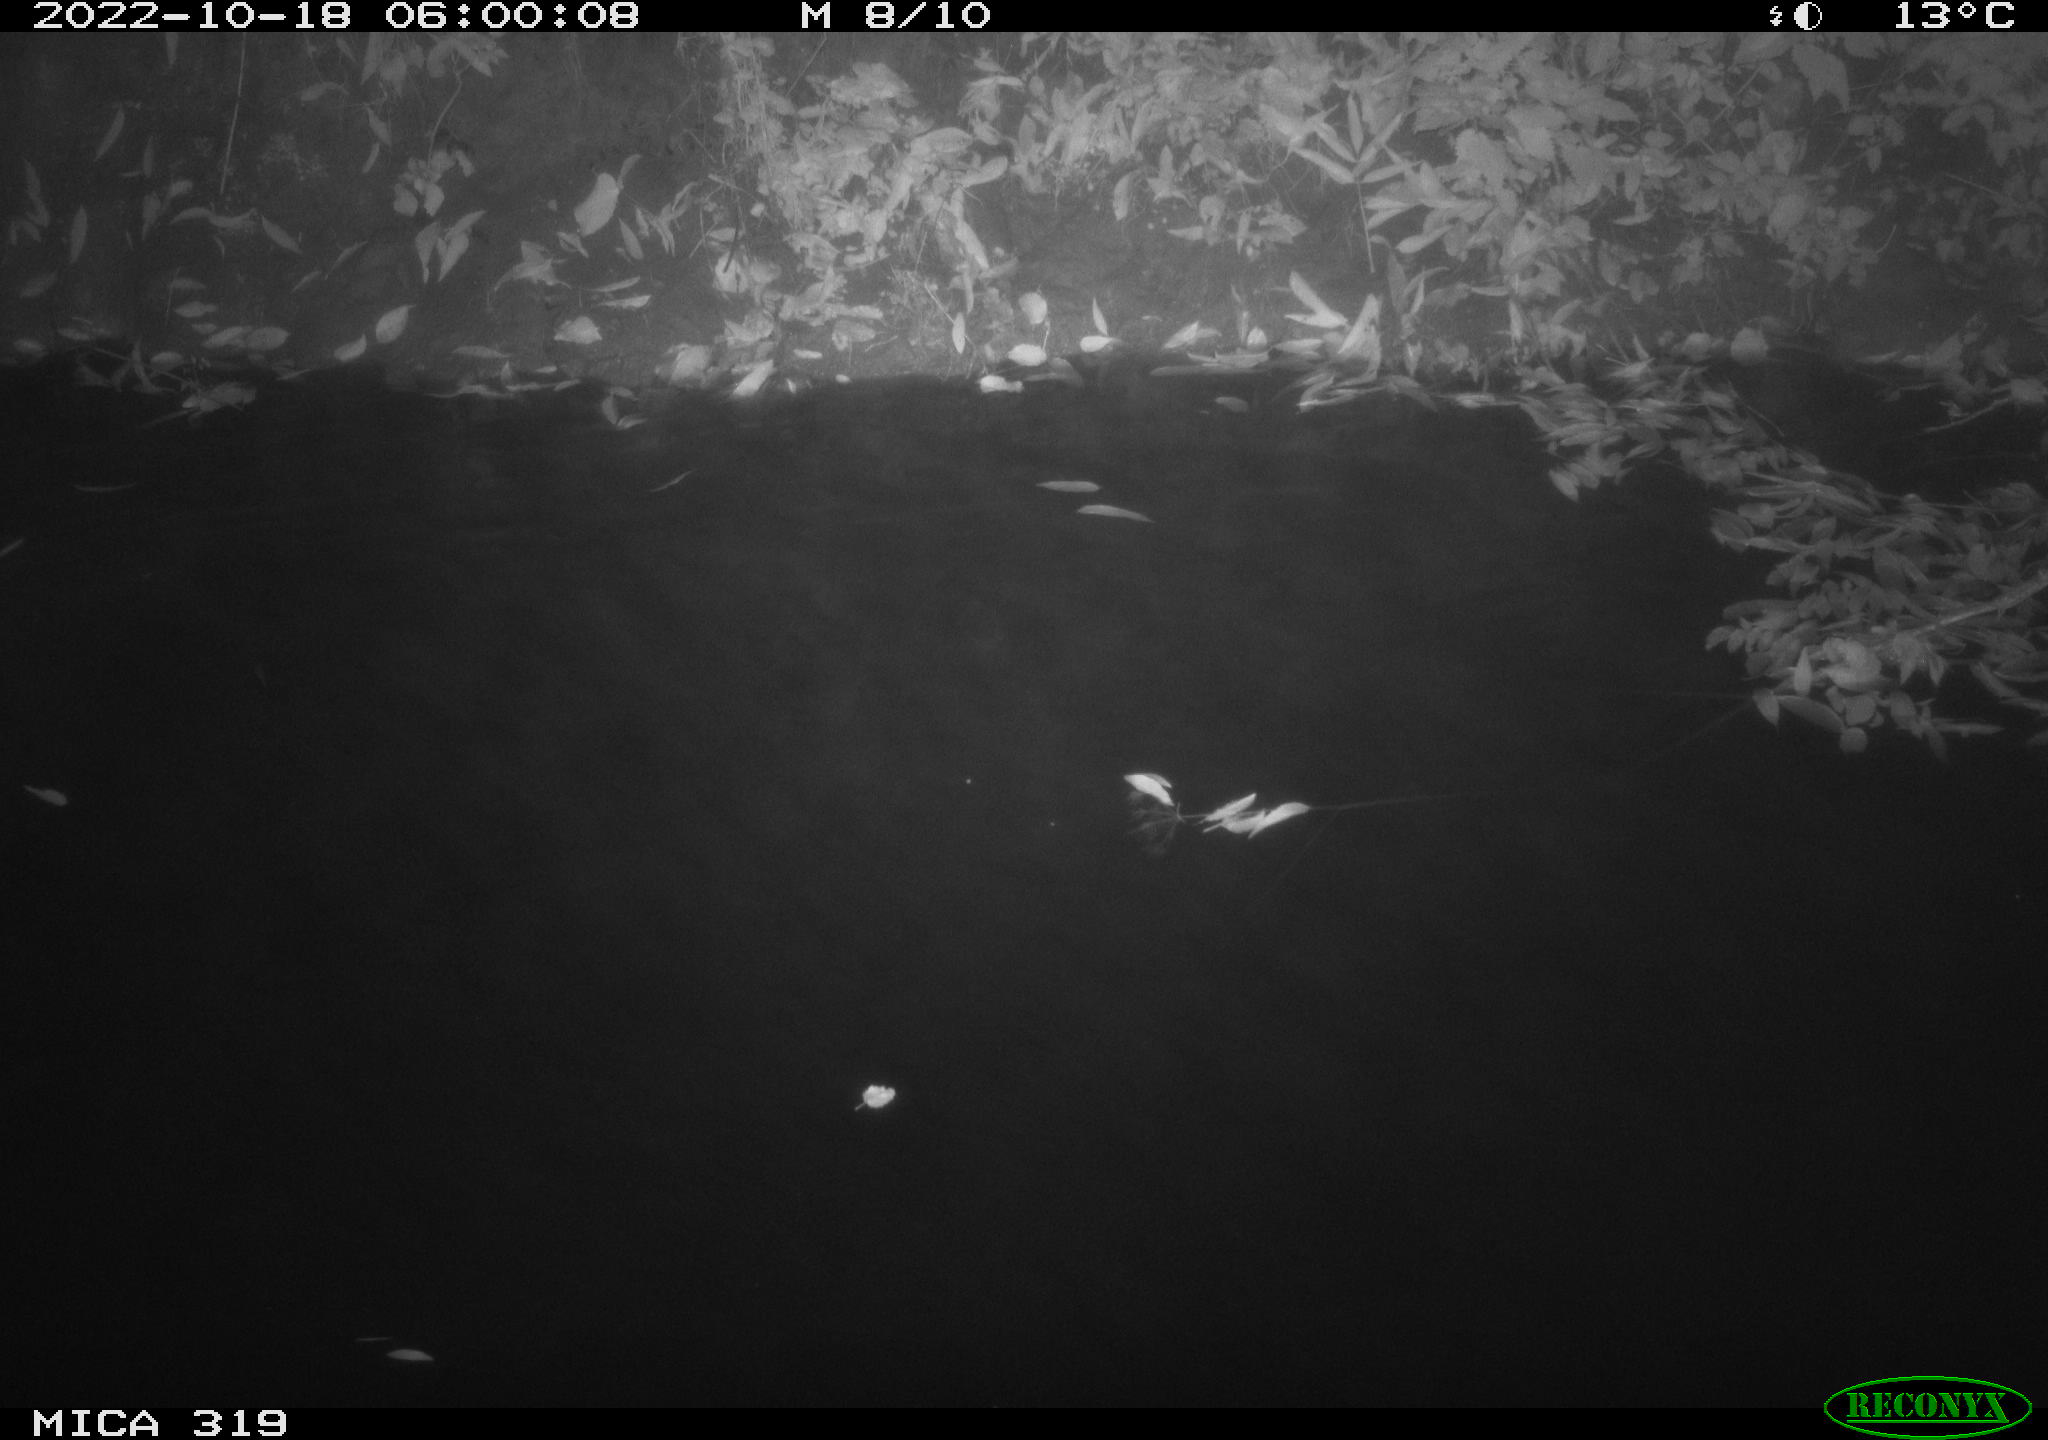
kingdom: Animalia
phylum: Chordata
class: Aves
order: Anseriformes
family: Anatidae
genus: Anas
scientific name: Anas
